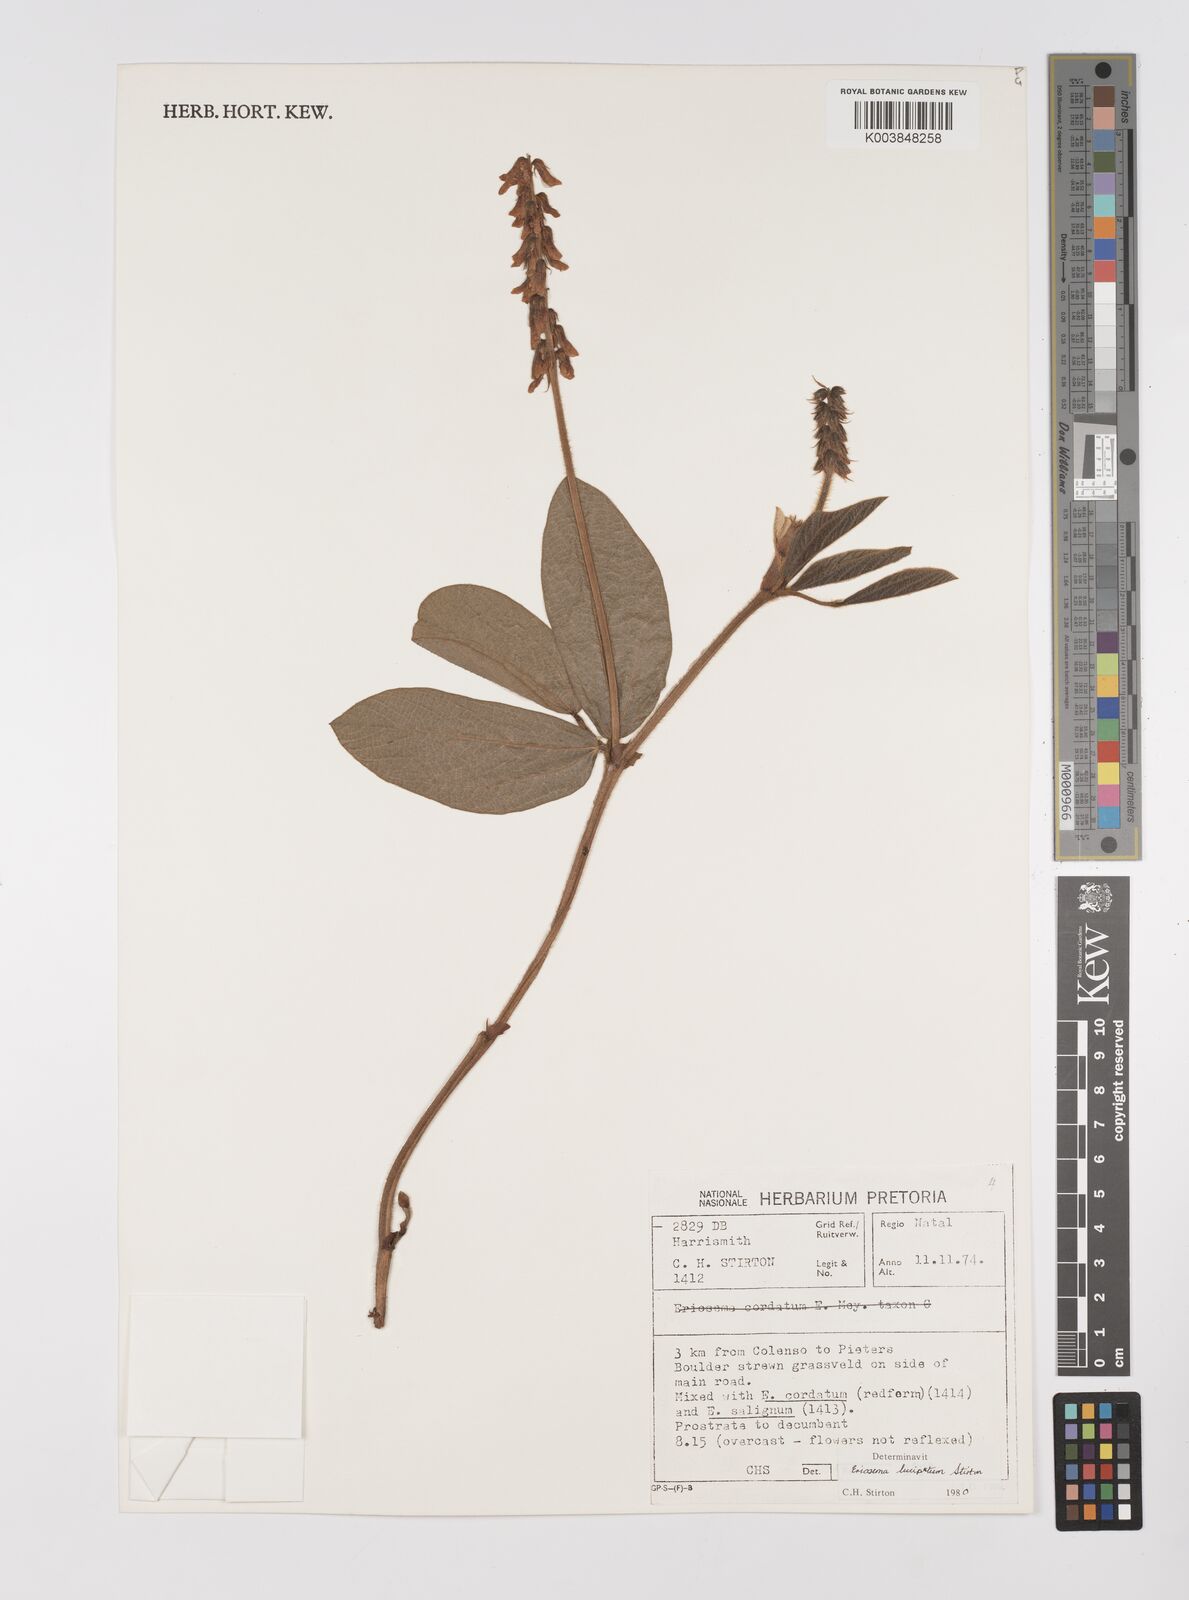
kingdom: Plantae
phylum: Tracheophyta
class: Magnoliopsida
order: Fabales
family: Fabaceae
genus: Eriosema
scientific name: Eriosema lucipetum
